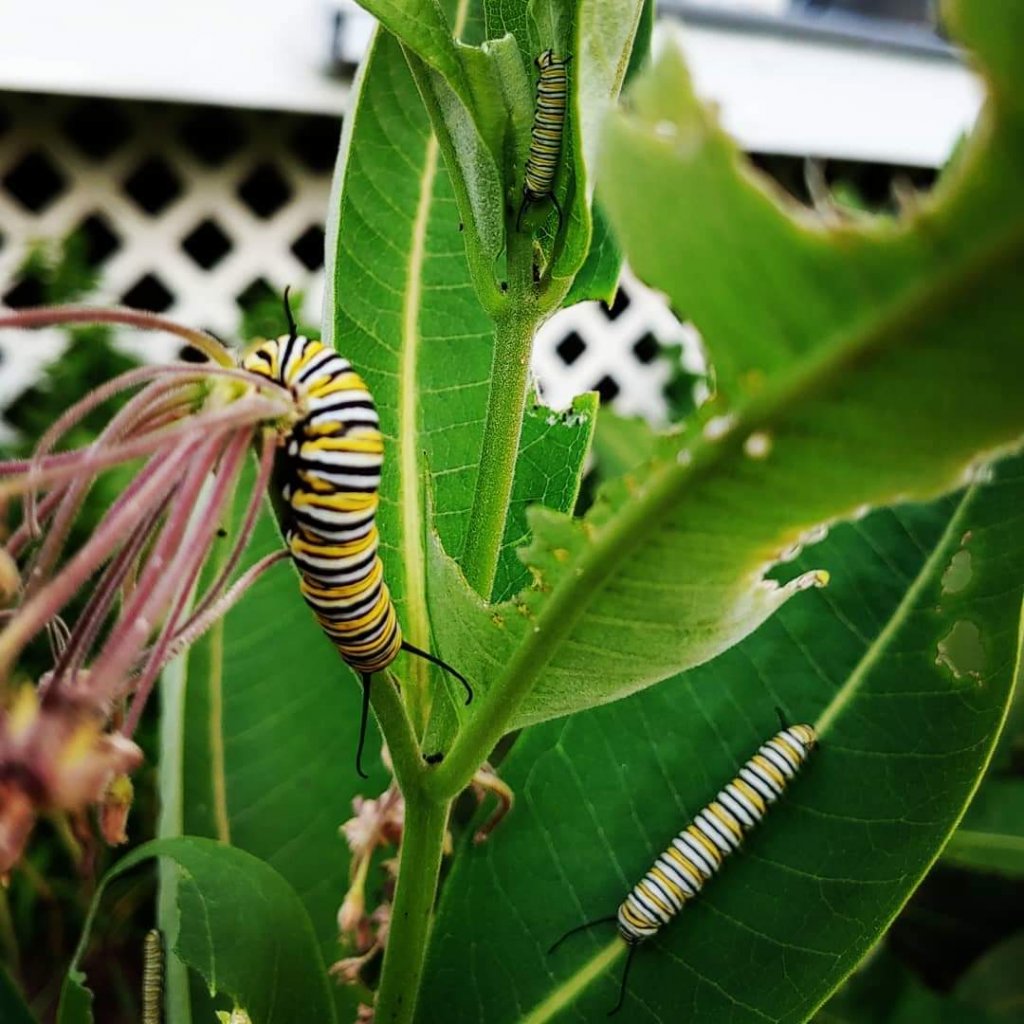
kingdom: Animalia
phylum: Arthropoda
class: Insecta
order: Lepidoptera
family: Nymphalidae
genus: Danaus
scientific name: Danaus plexippus
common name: Monarch
